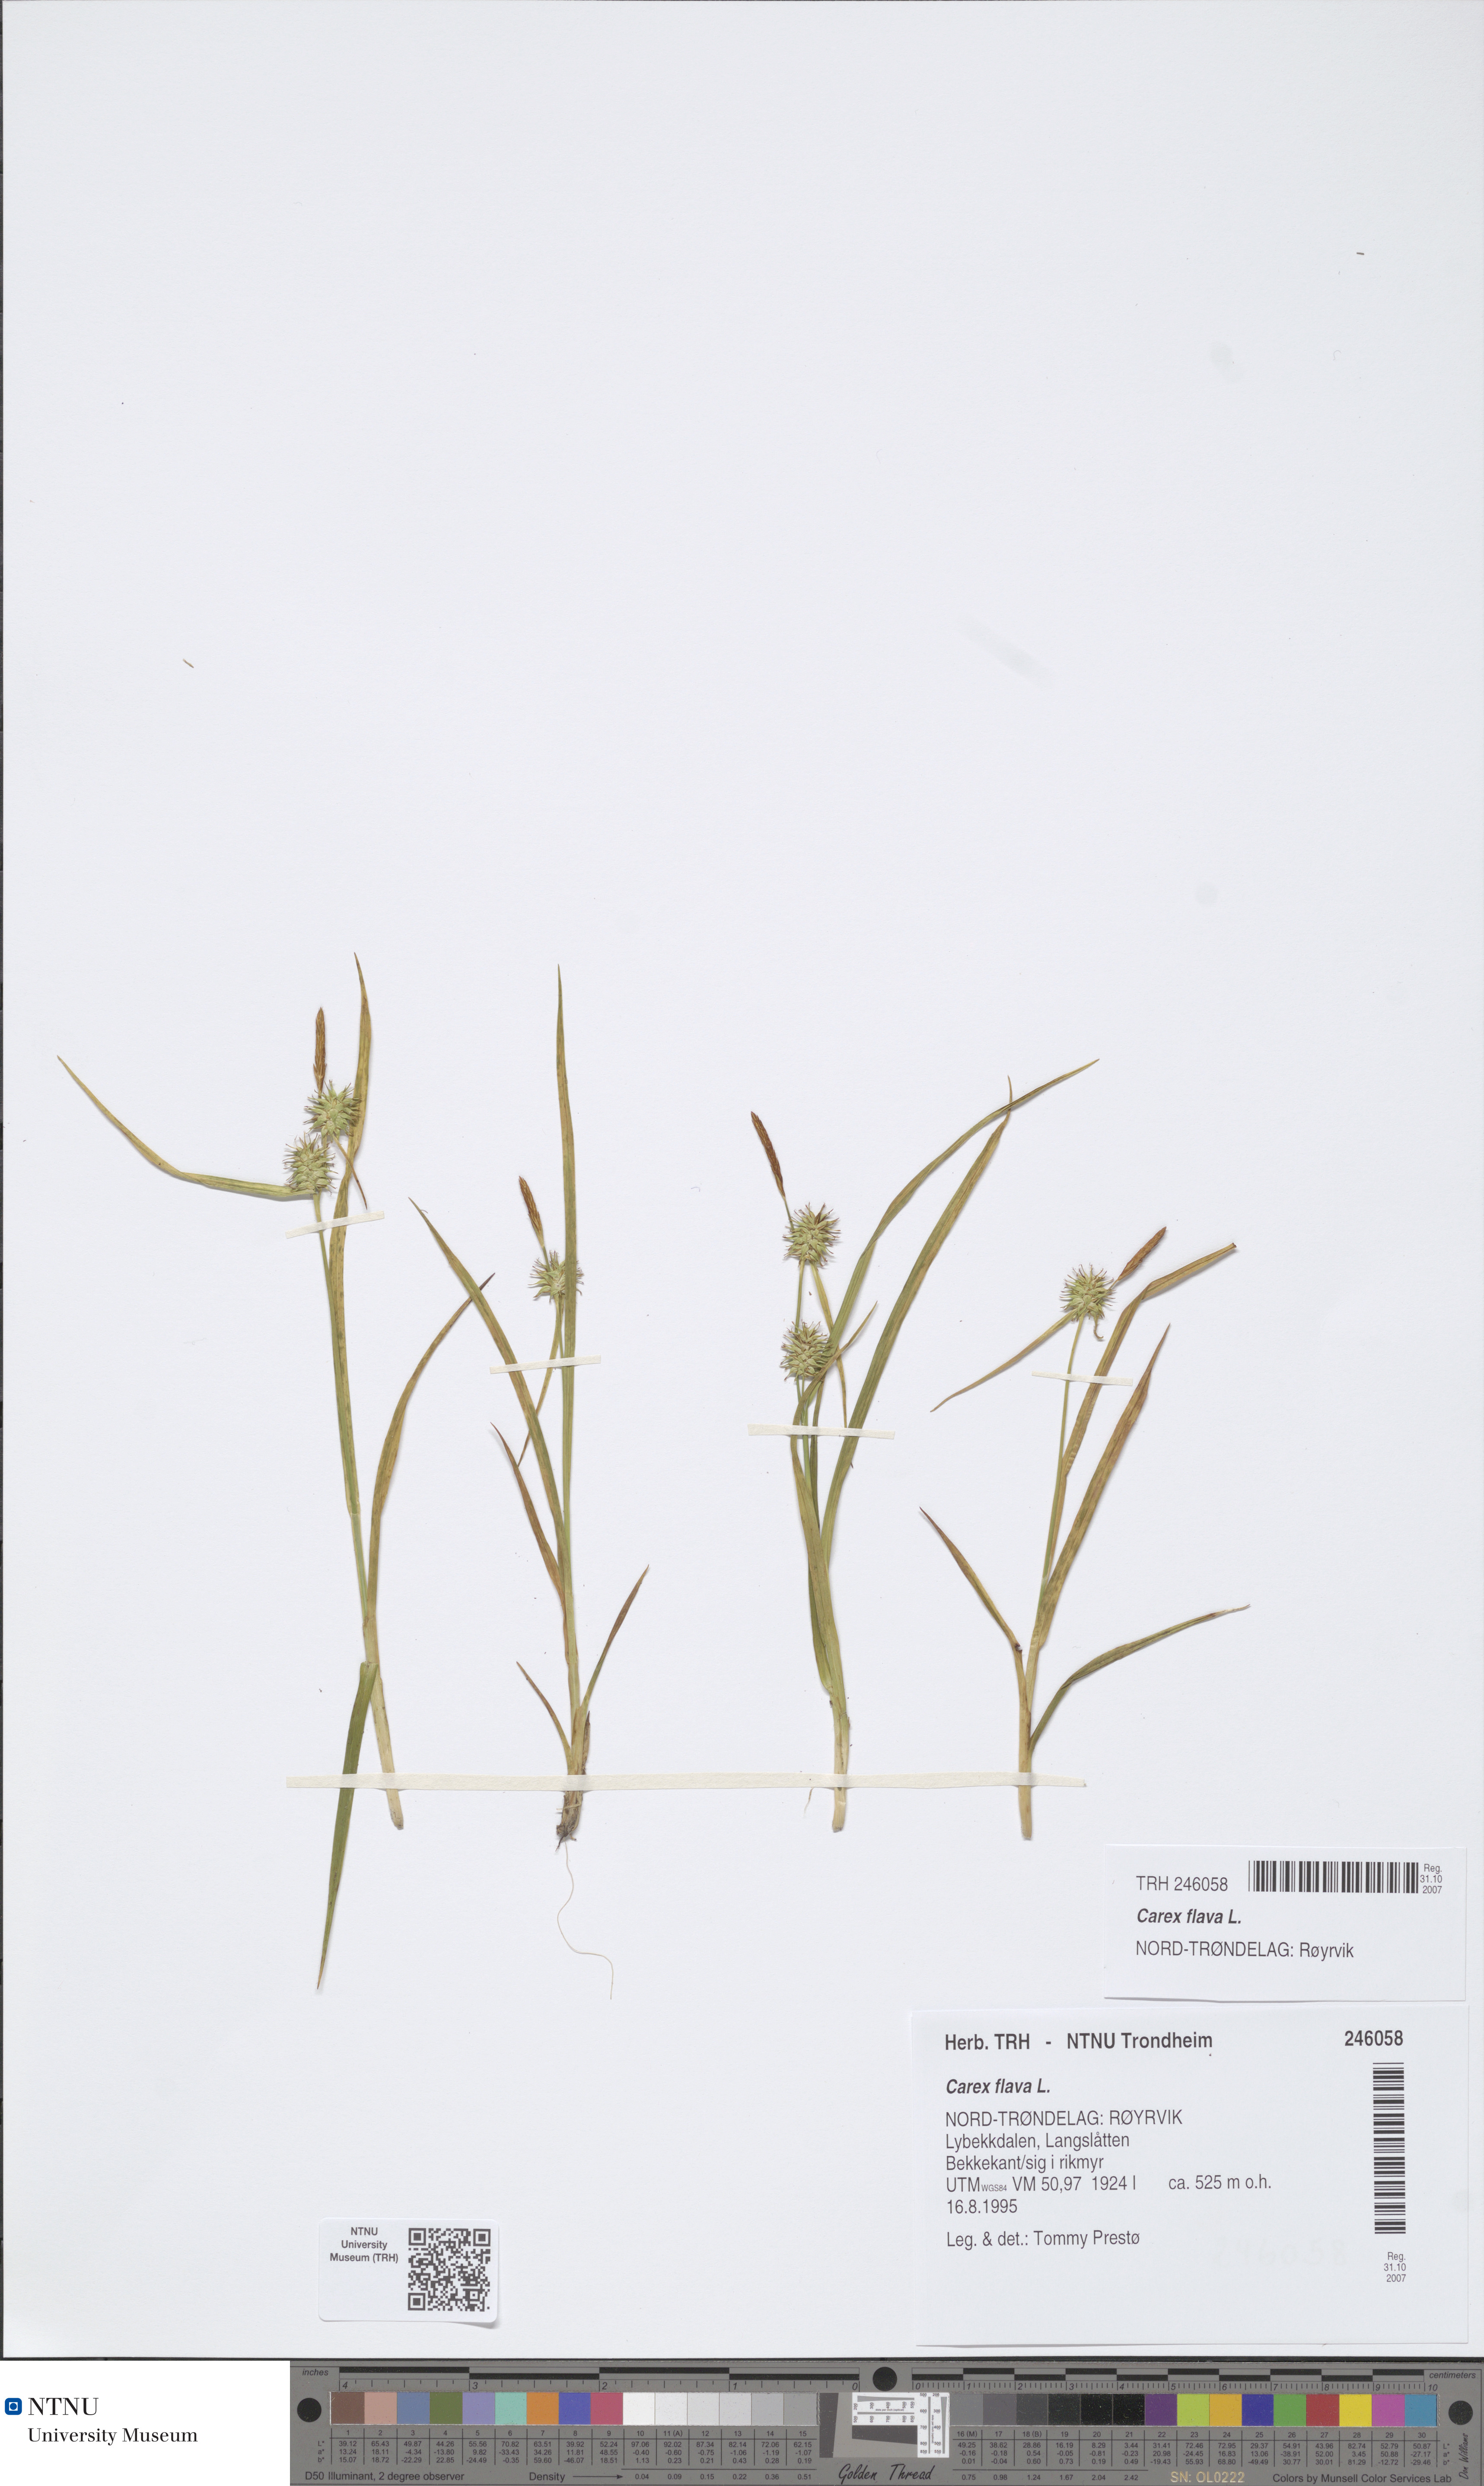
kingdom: Plantae
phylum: Tracheophyta
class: Liliopsida
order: Poales
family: Cyperaceae
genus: Carex
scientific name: Carex flava
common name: Large yellow-sedge
